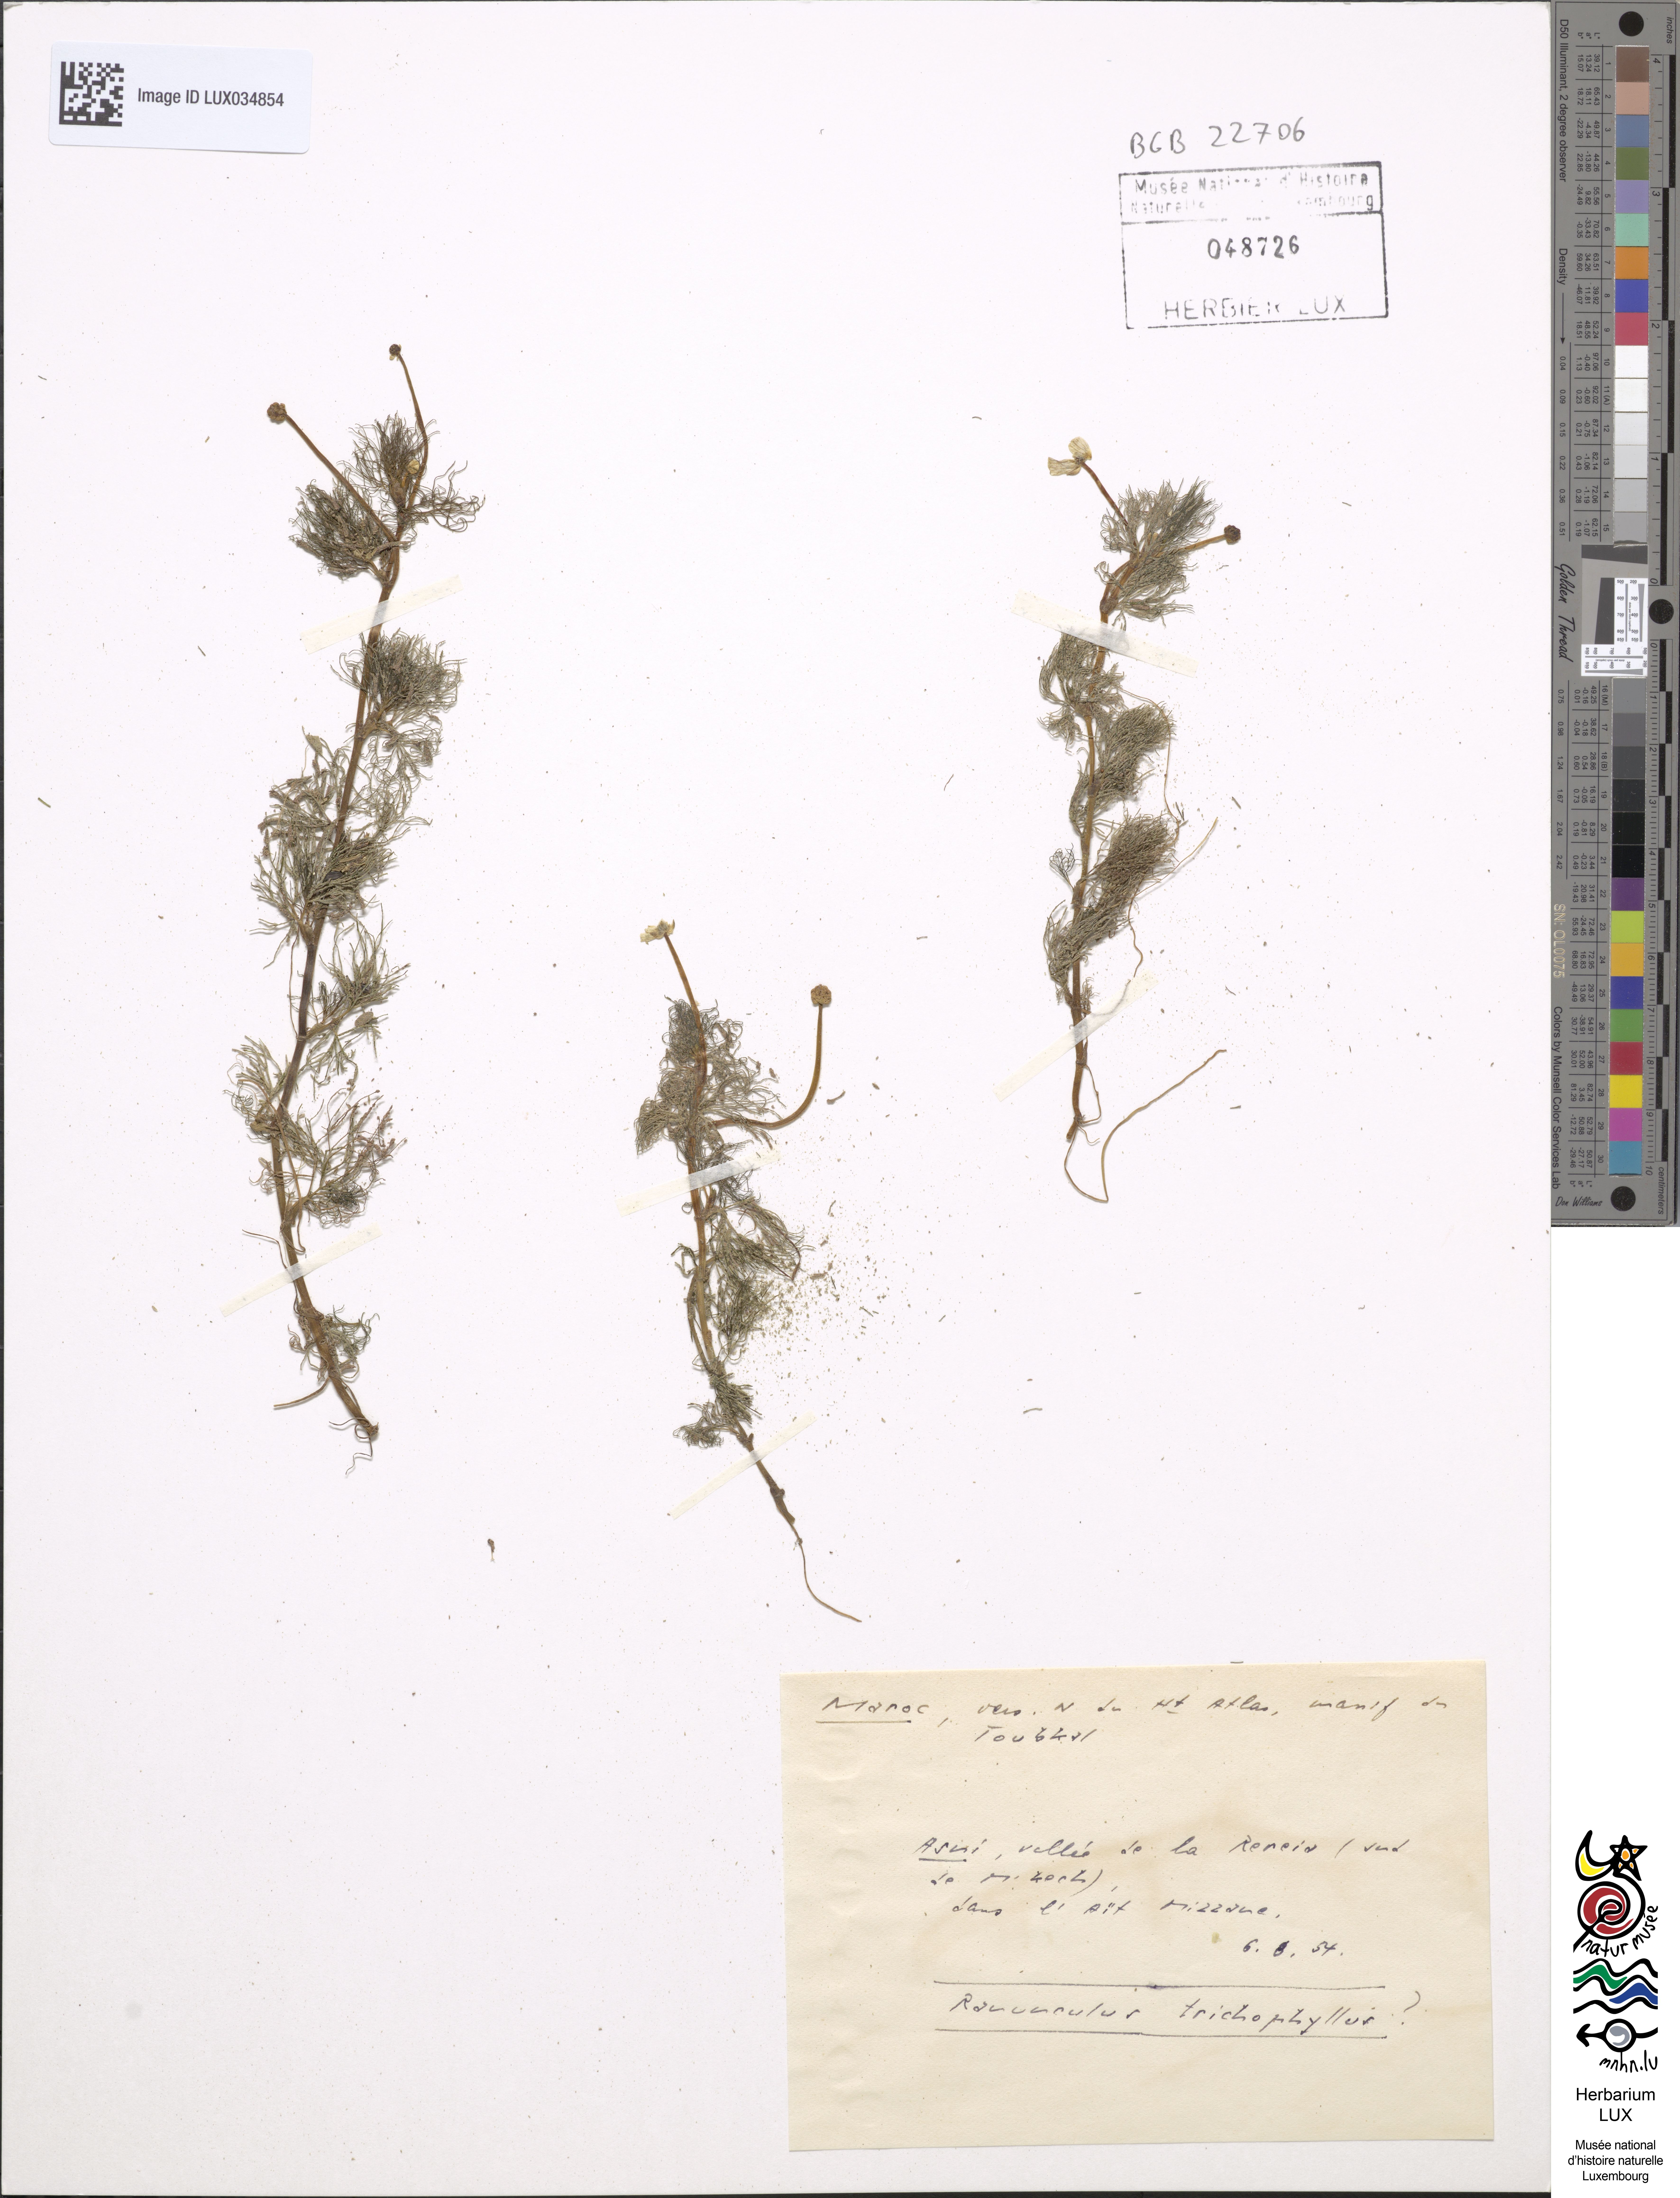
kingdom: Plantae
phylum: Tracheophyta
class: Magnoliopsida
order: Ranunculales
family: Ranunculaceae
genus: Ranunculus
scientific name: Ranunculus trichophyllus
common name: Thread-leaved water-crowfoot
